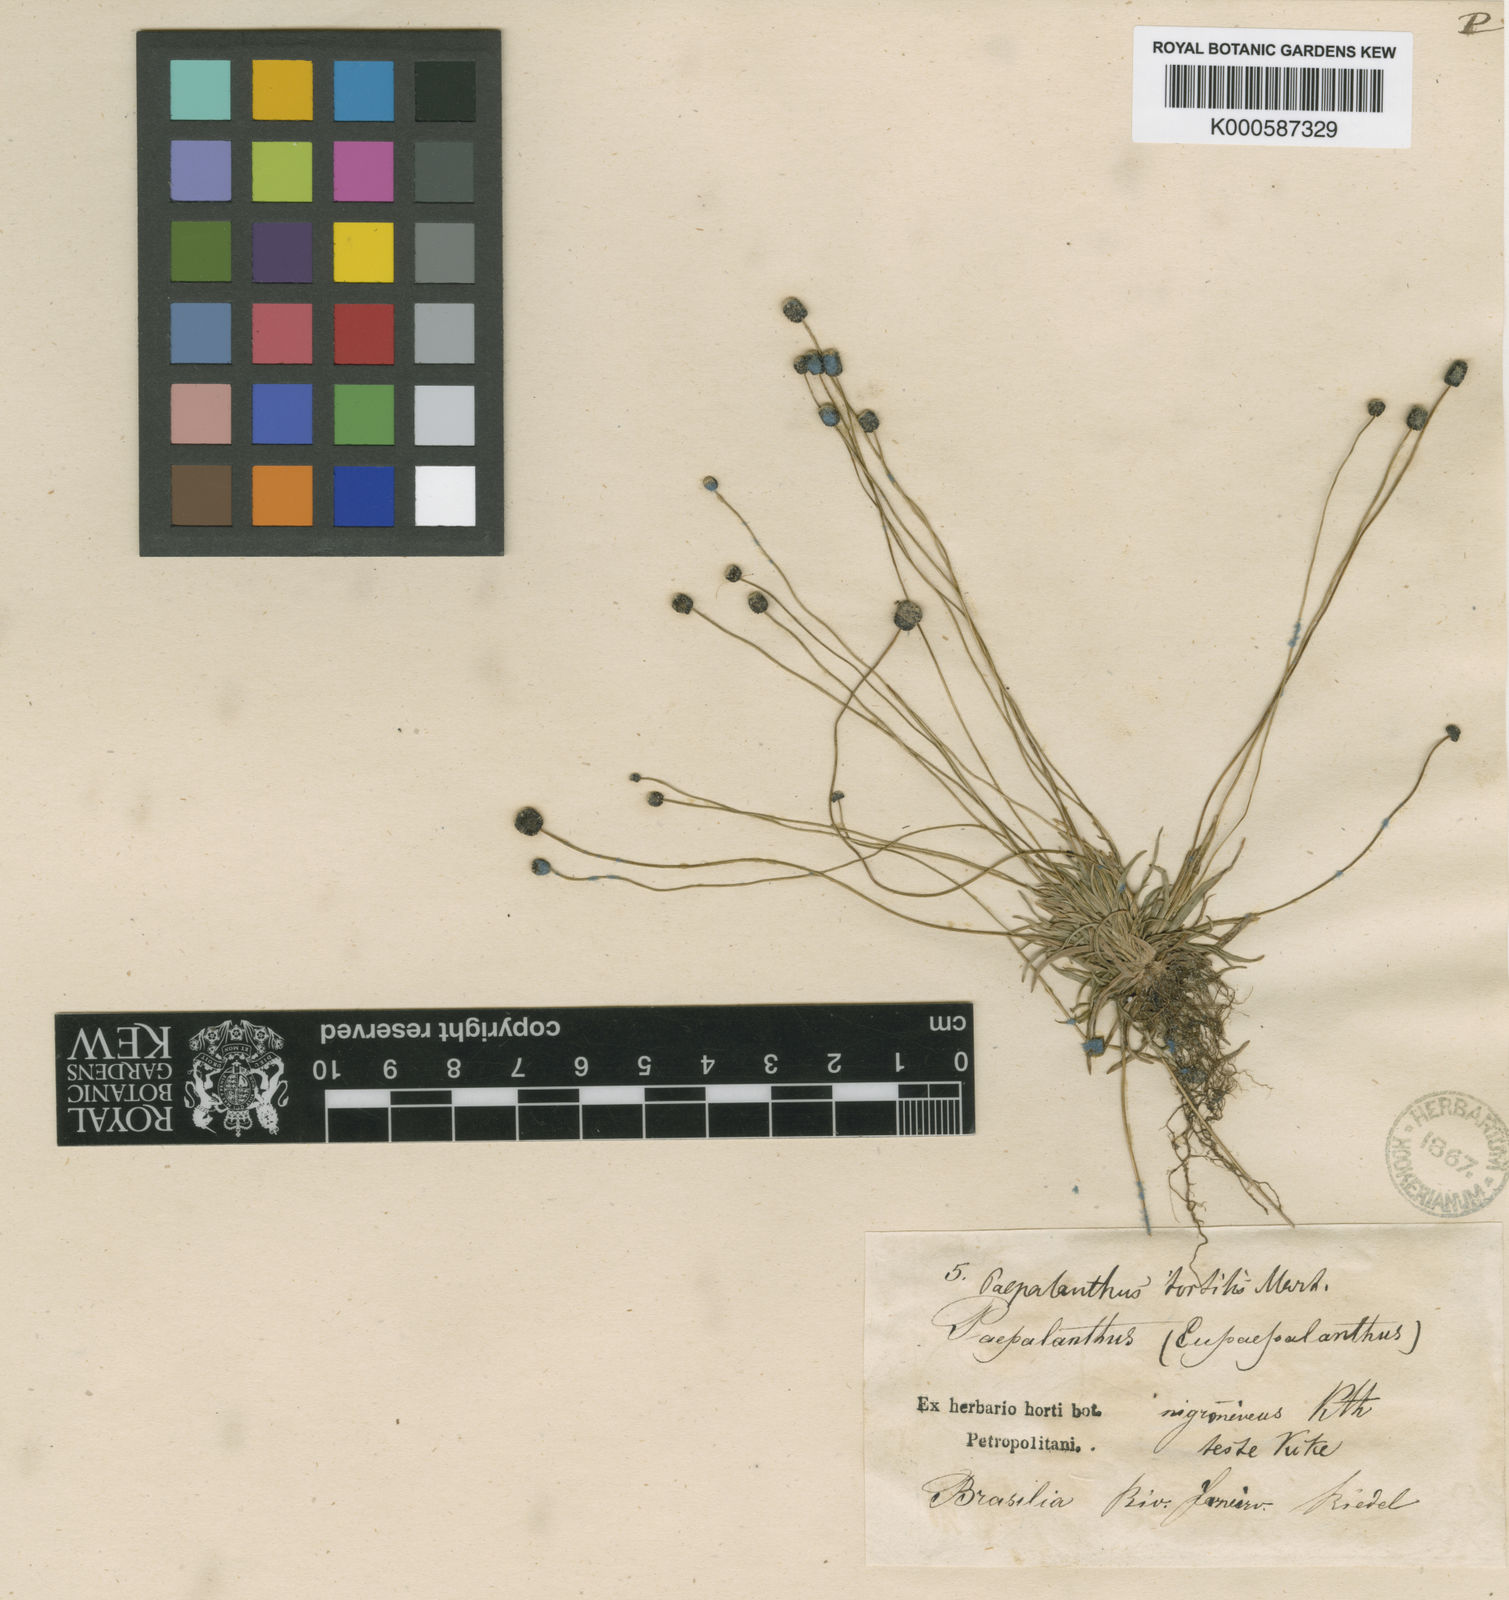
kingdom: Plantae
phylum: Tracheophyta
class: Liliopsida
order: Poales
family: Eriocaulaceae
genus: Paepalanthus
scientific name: Paepalanthus
